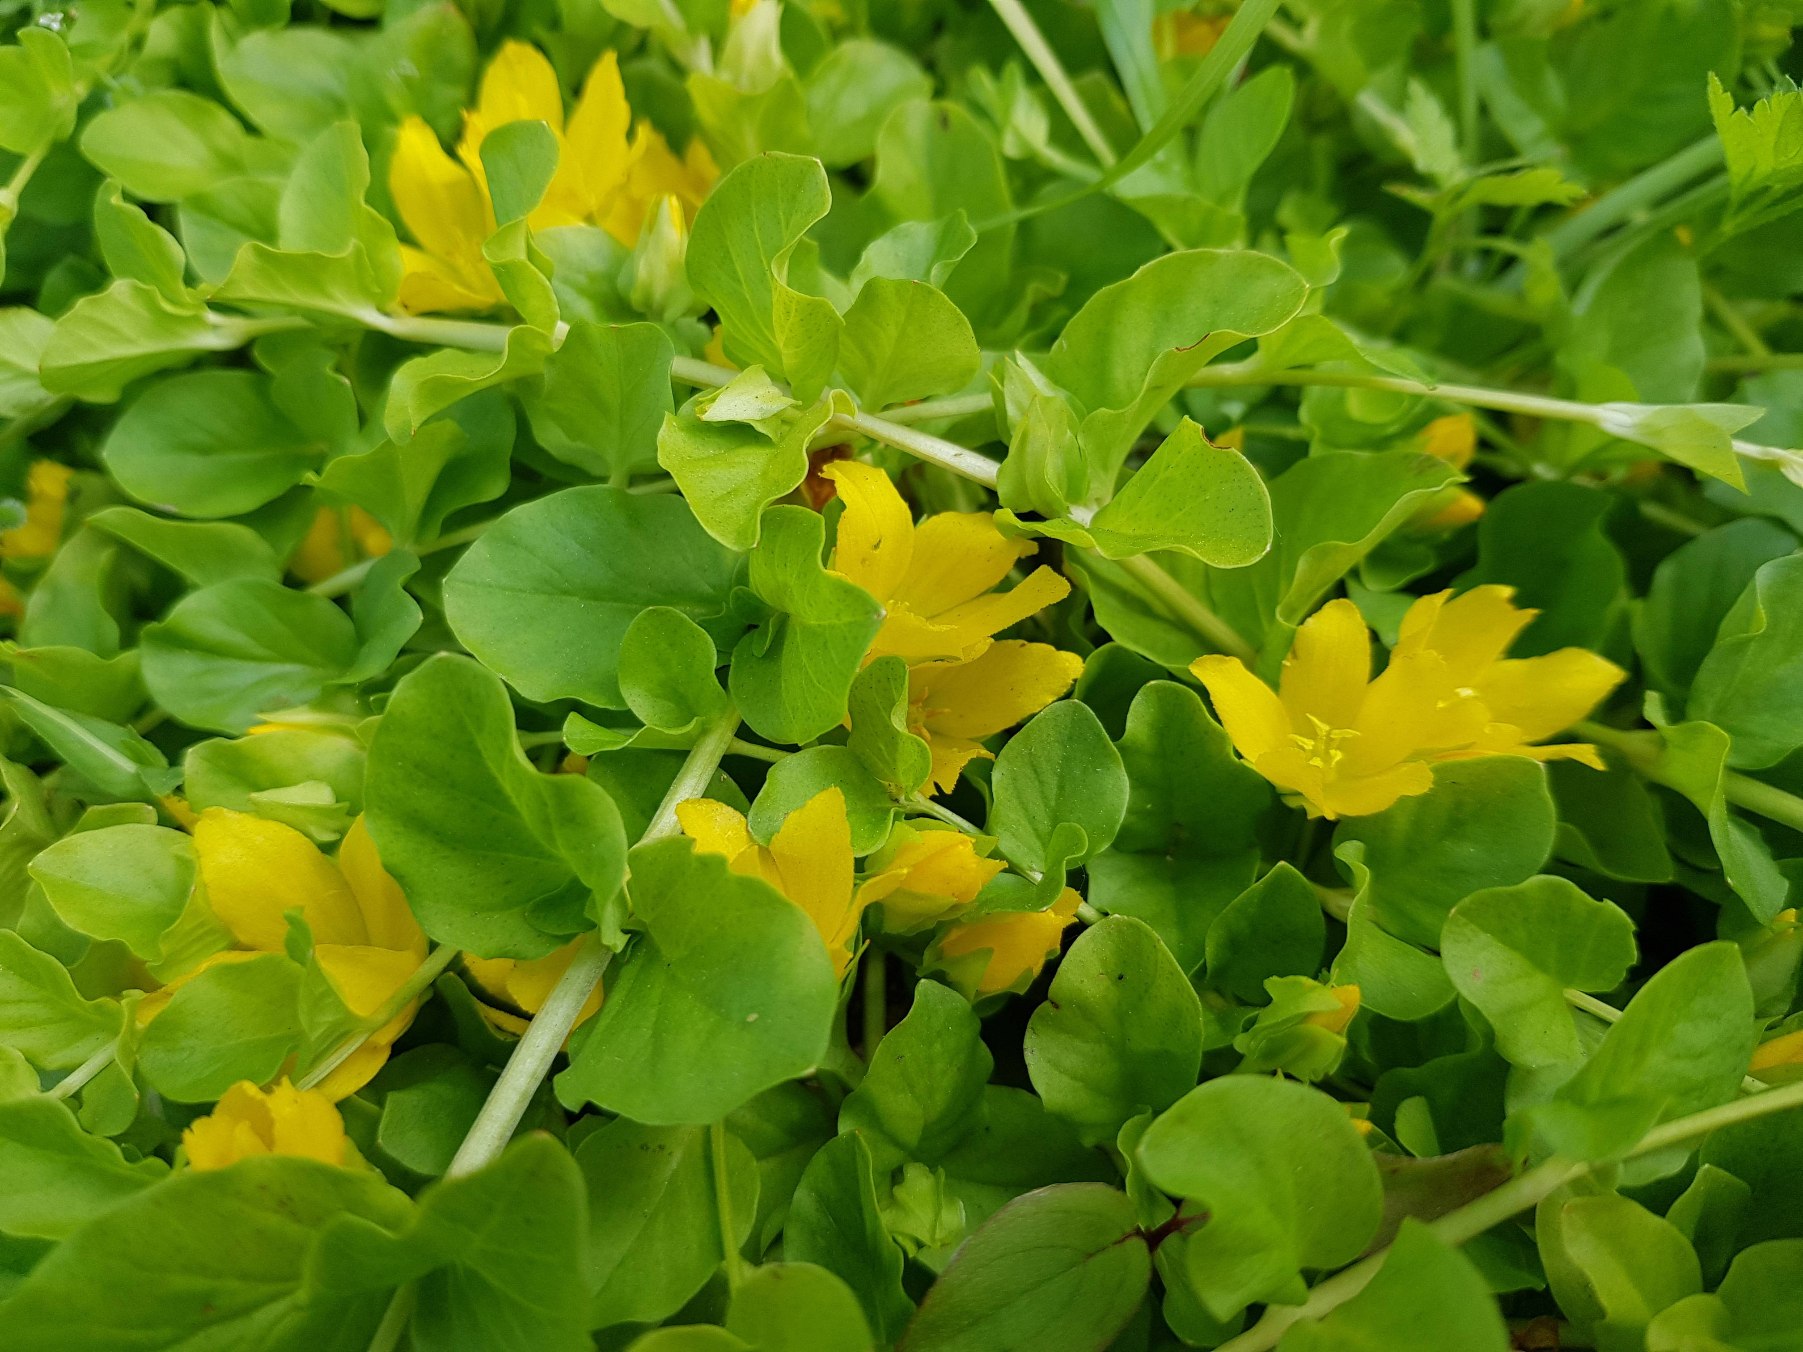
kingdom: Plantae
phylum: Tracheophyta
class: Magnoliopsida
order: Ericales
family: Primulaceae
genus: Lysimachia
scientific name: Lysimachia nummularia
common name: Pengebladet fredløs
